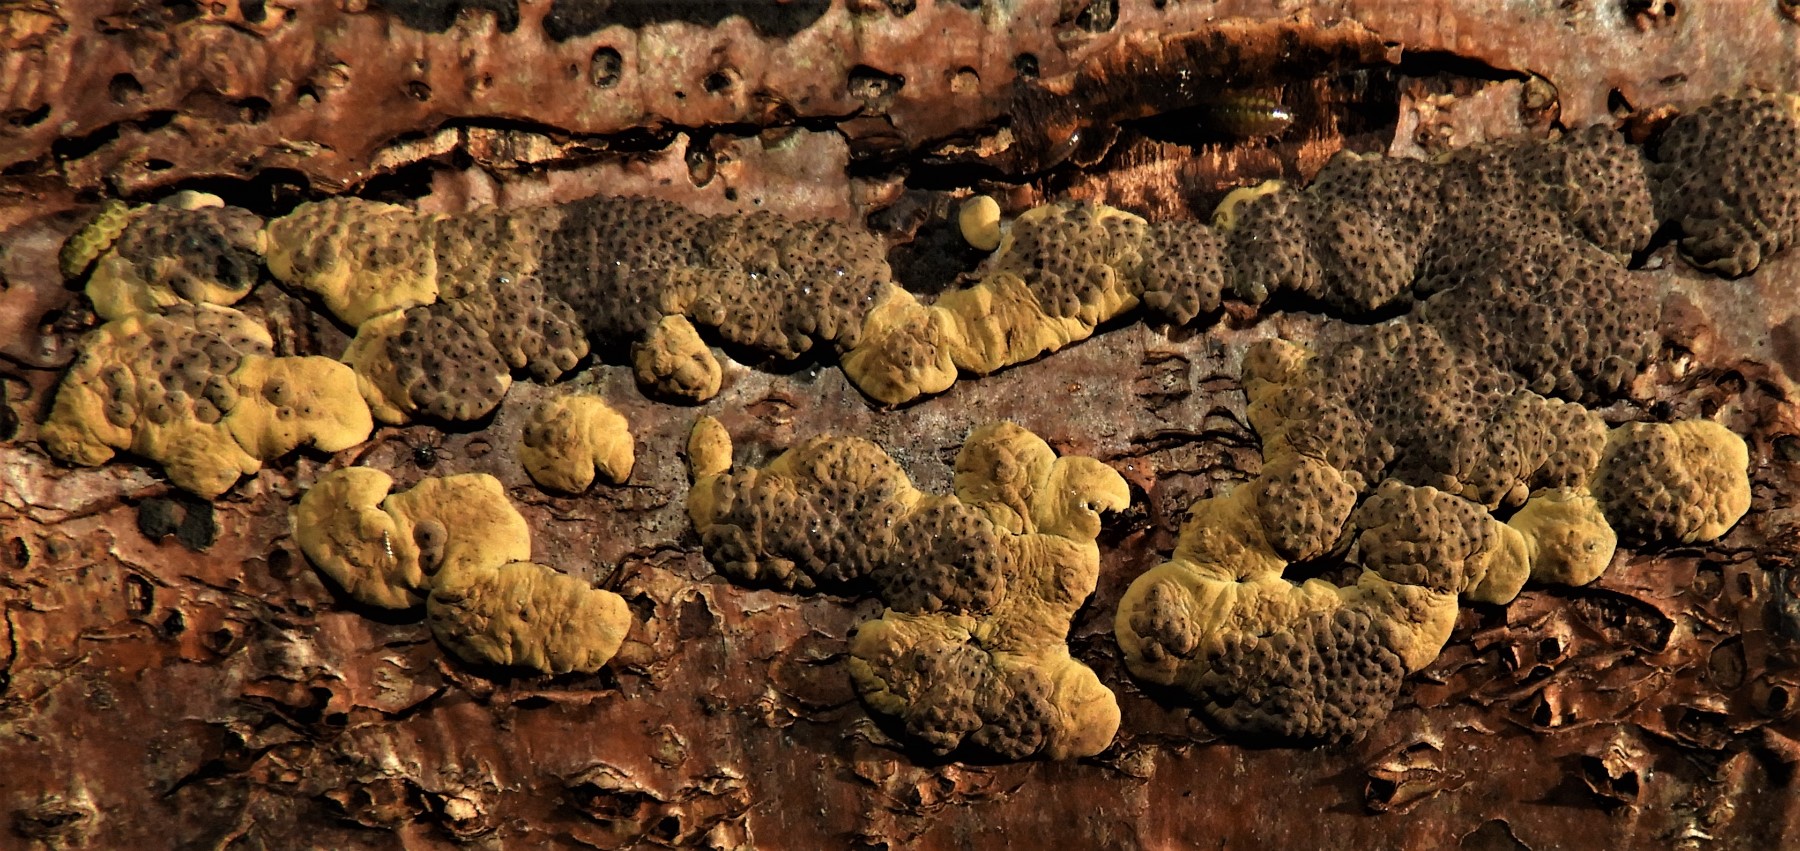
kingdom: Fungi
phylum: Ascomycota
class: Sordariomycetes
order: Xylariales
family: Hypoxylaceae
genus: Jackrogersella
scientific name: Jackrogersella multiformis
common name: foranderlig kulbær
